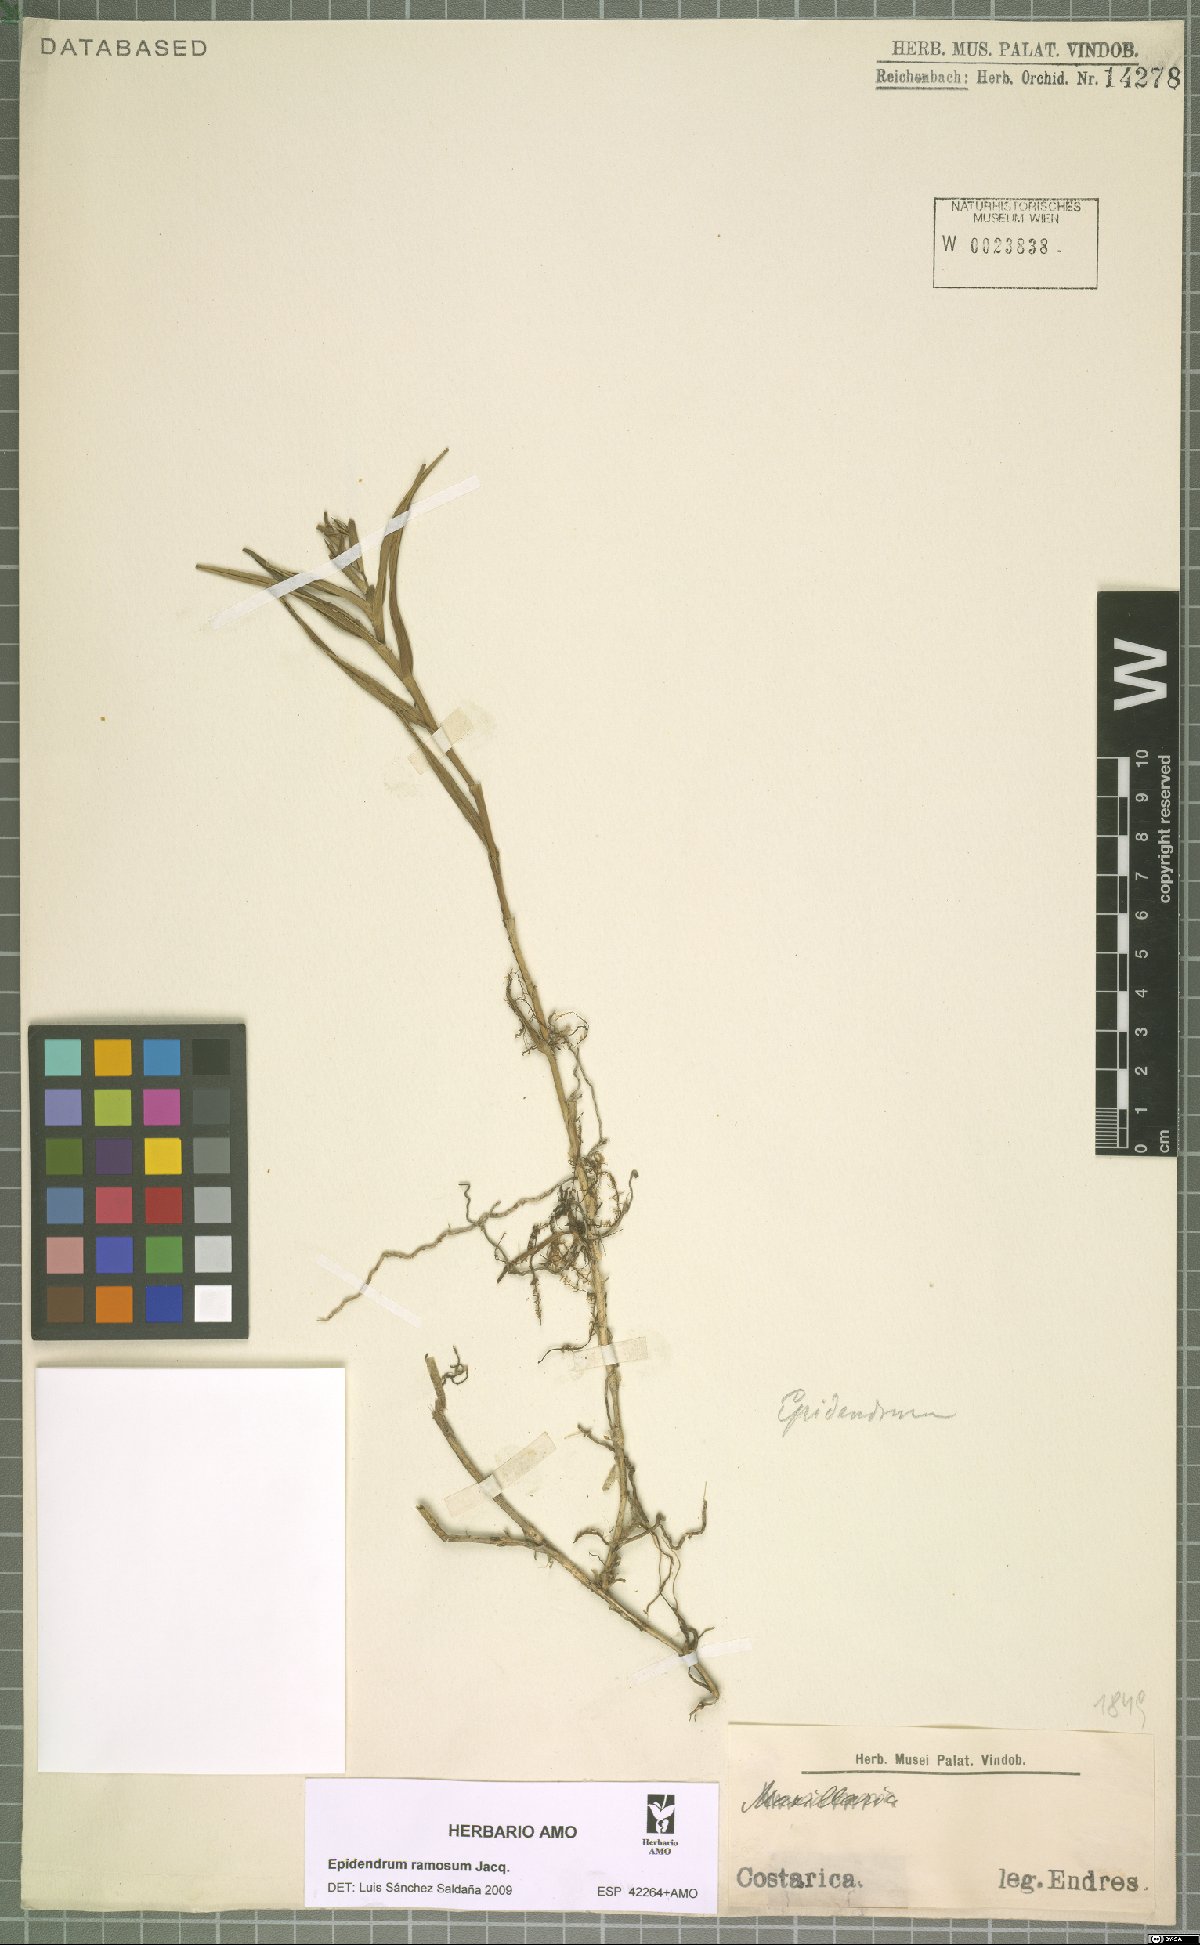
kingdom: Plantae
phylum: Tracheophyta
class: Liliopsida
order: Asparagales
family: Orchidaceae
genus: Epidendrum
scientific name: Epidendrum ramosum
